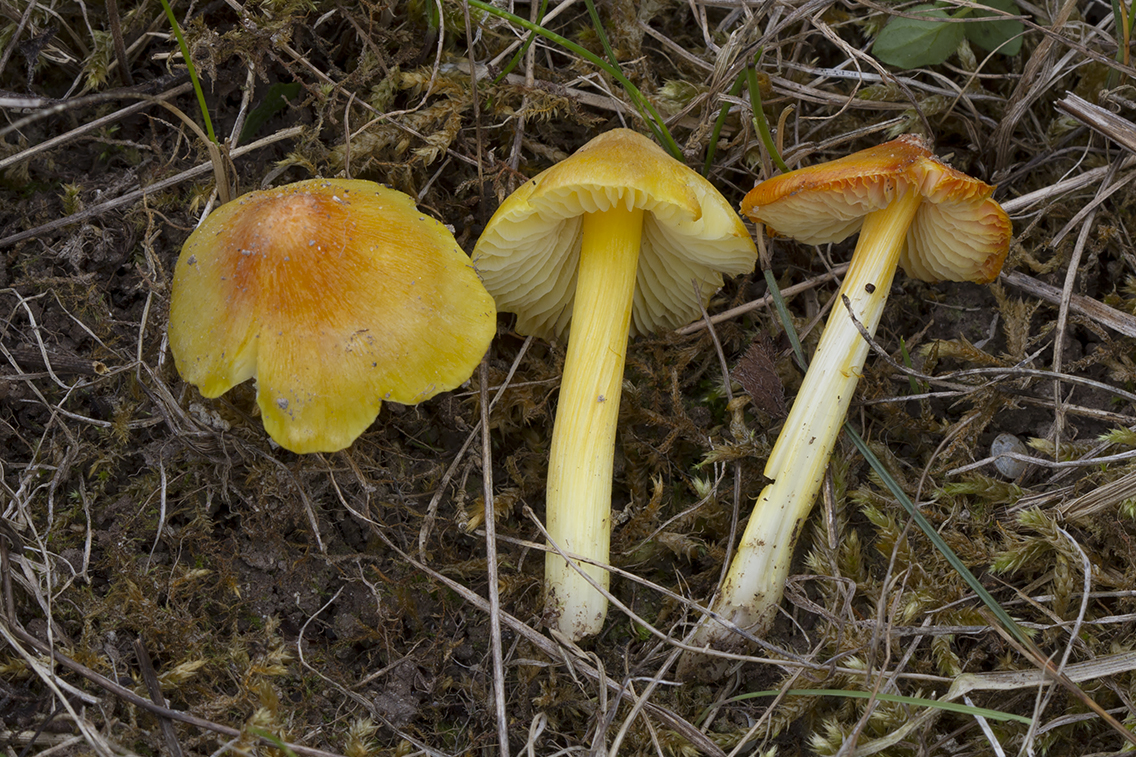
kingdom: Fungi
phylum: Basidiomycota
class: Agaricomycetes
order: Agaricales
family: Hygrophoraceae
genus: Hygrocybe
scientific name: Hygrocybe acutoconica
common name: Konrads vokshat
